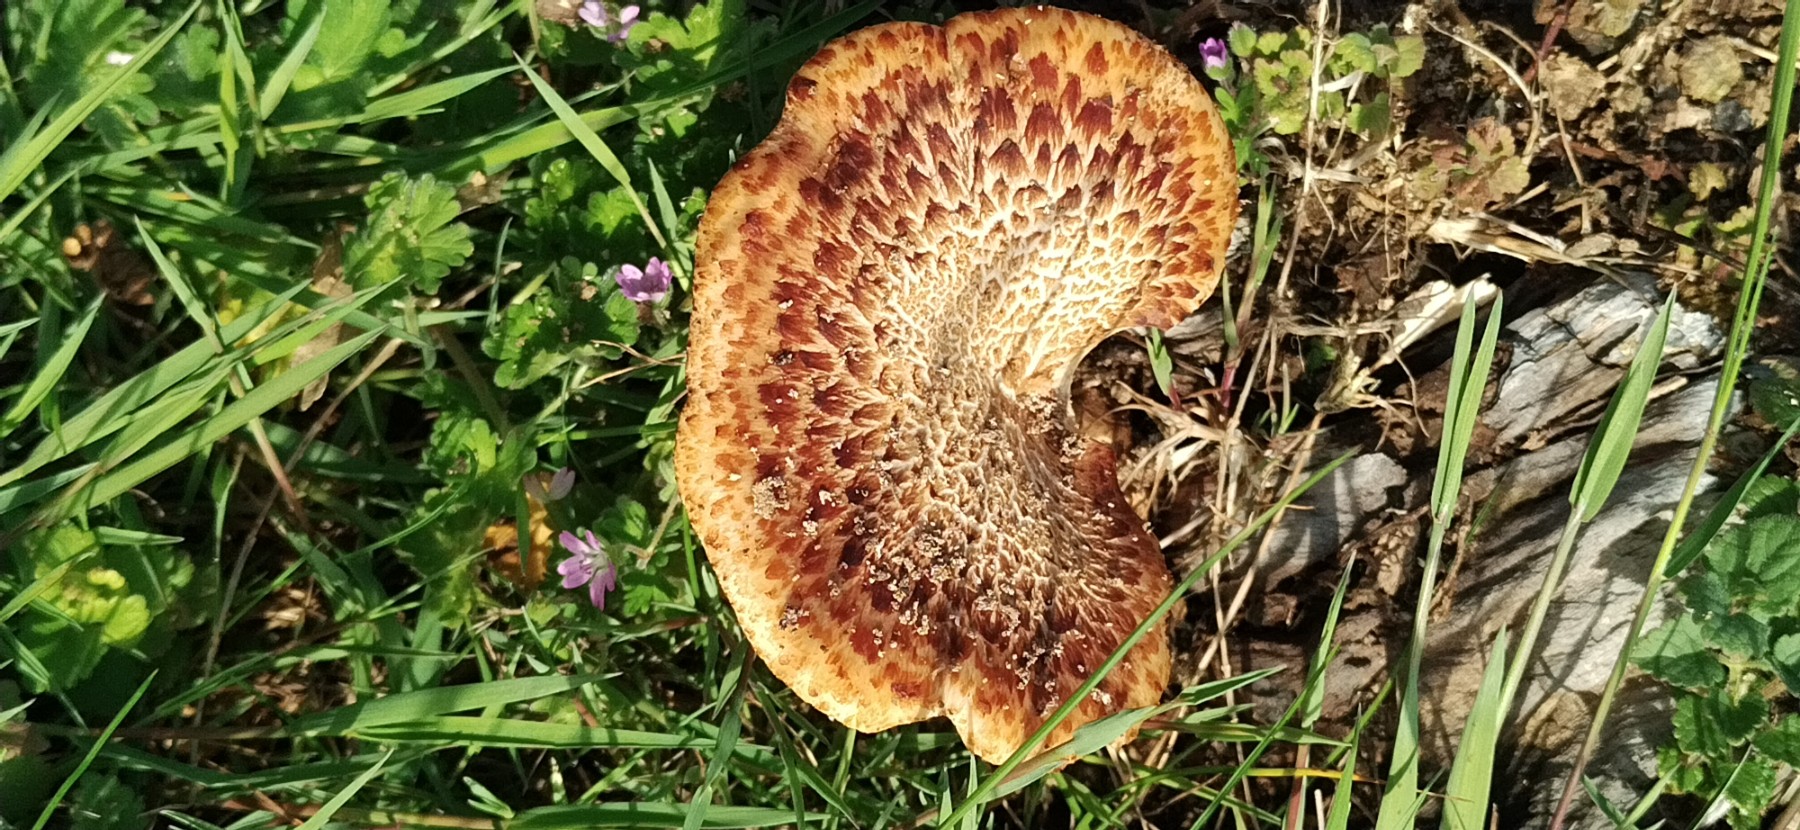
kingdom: Fungi
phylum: Basidiomycota
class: Agaricomycetes
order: Polyporales
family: Polyporaceae
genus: Cerioporus
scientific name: Cerioporus squamosus
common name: skællet stilkporesvamp
